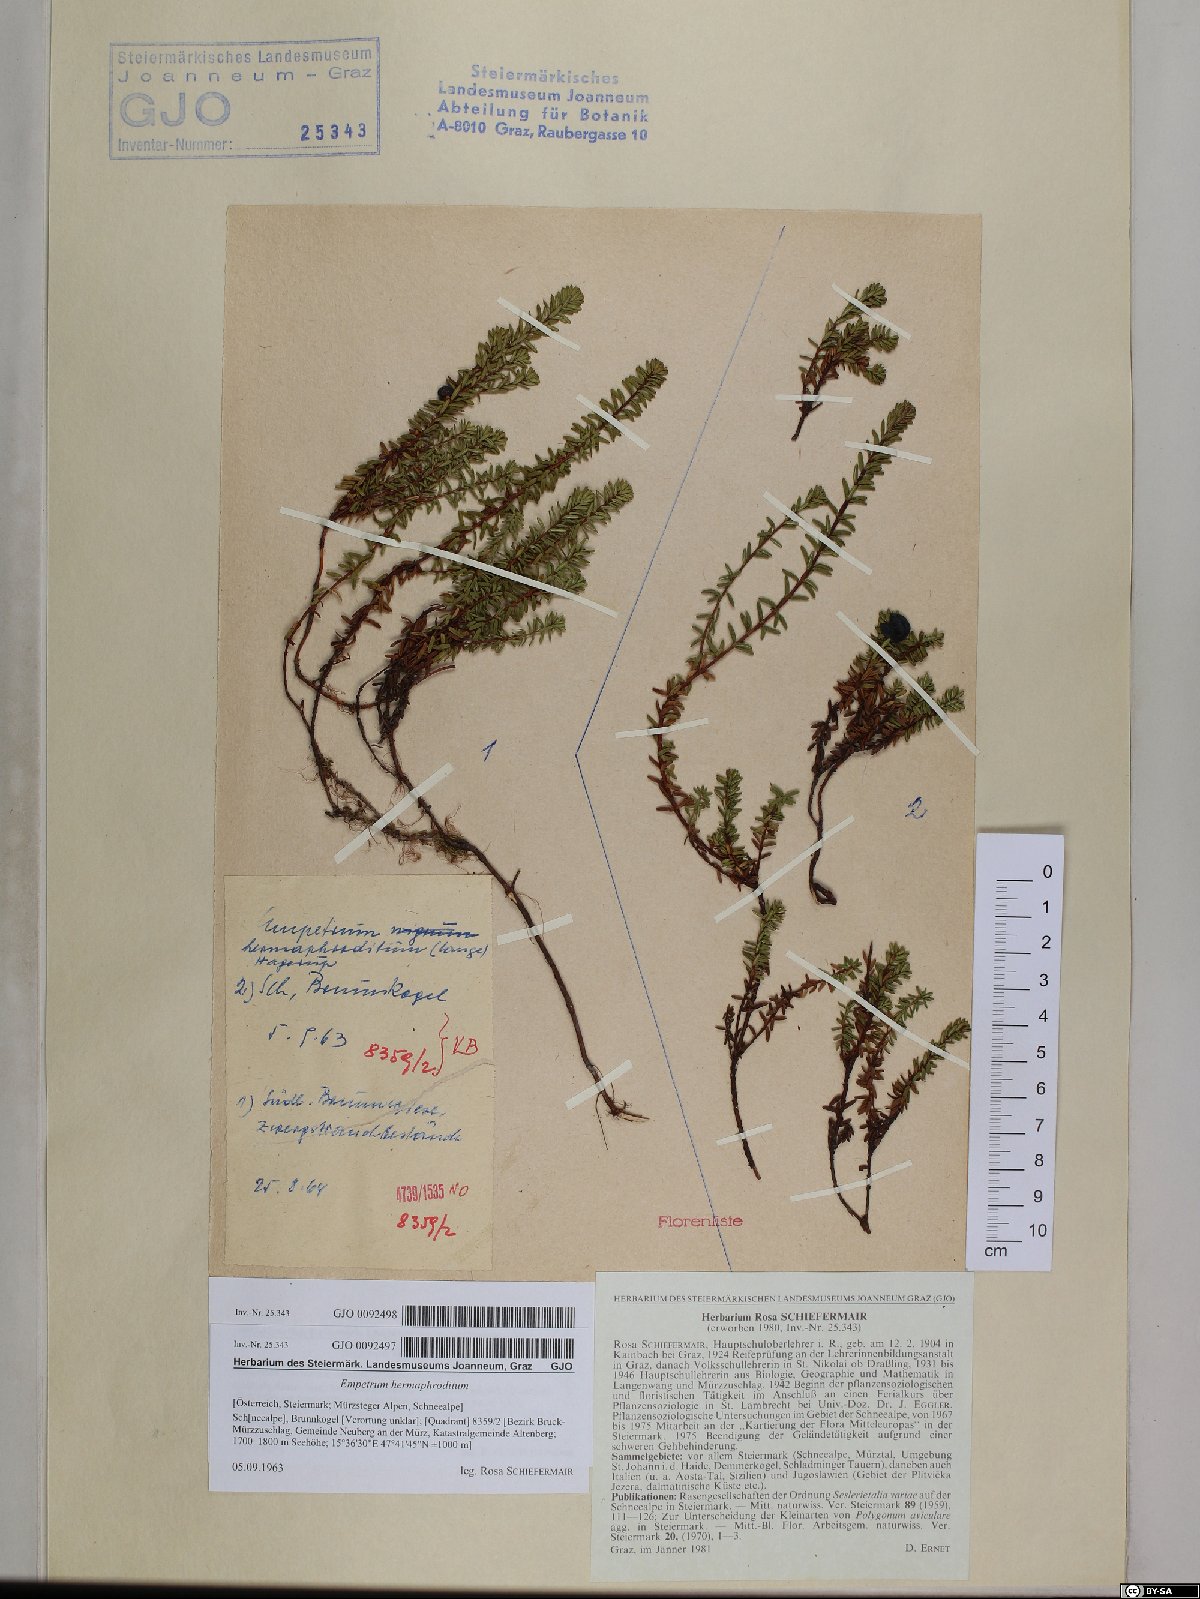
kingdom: Plantae
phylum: Tracheophyta
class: Magnoliopsida
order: Ericales
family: Ericaceae
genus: Empetrum
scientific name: Empetrum hermaphroditum
